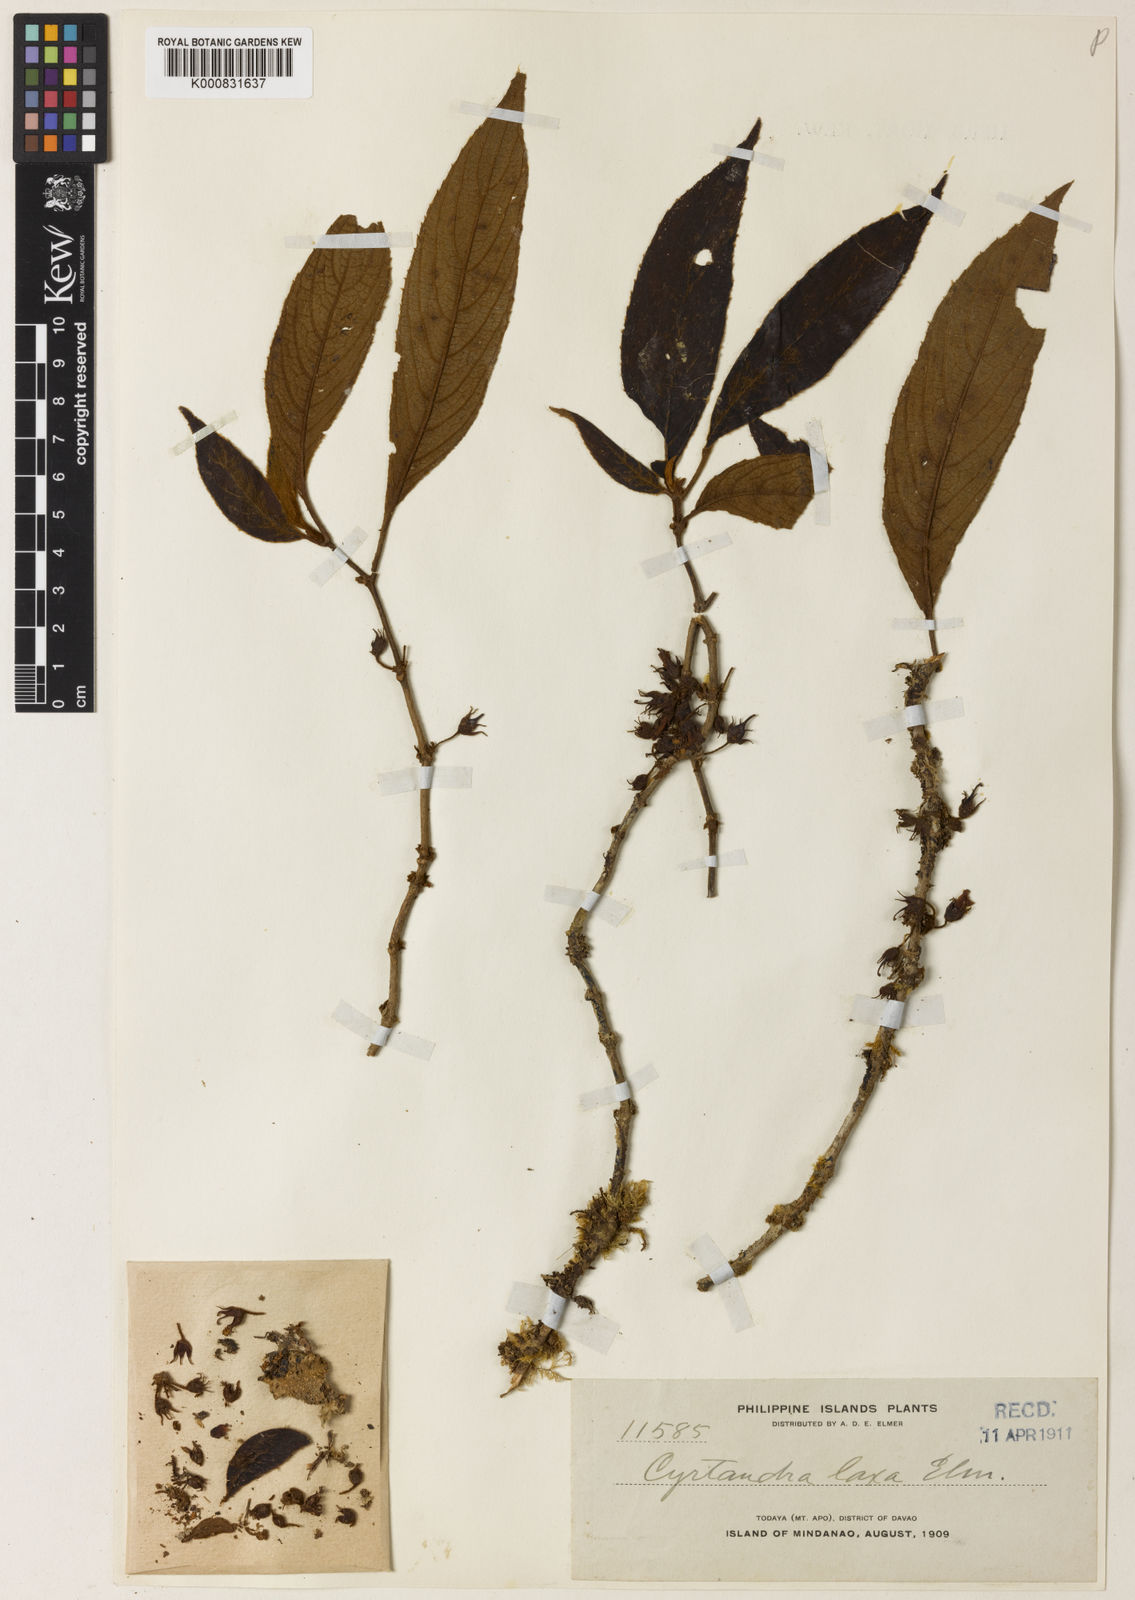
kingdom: Plantae
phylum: Tracheophyta
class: Magnoliopsida
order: Lamiales
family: Gesneriaceae
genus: Cyrtandra
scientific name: Cyrtandra pallida
